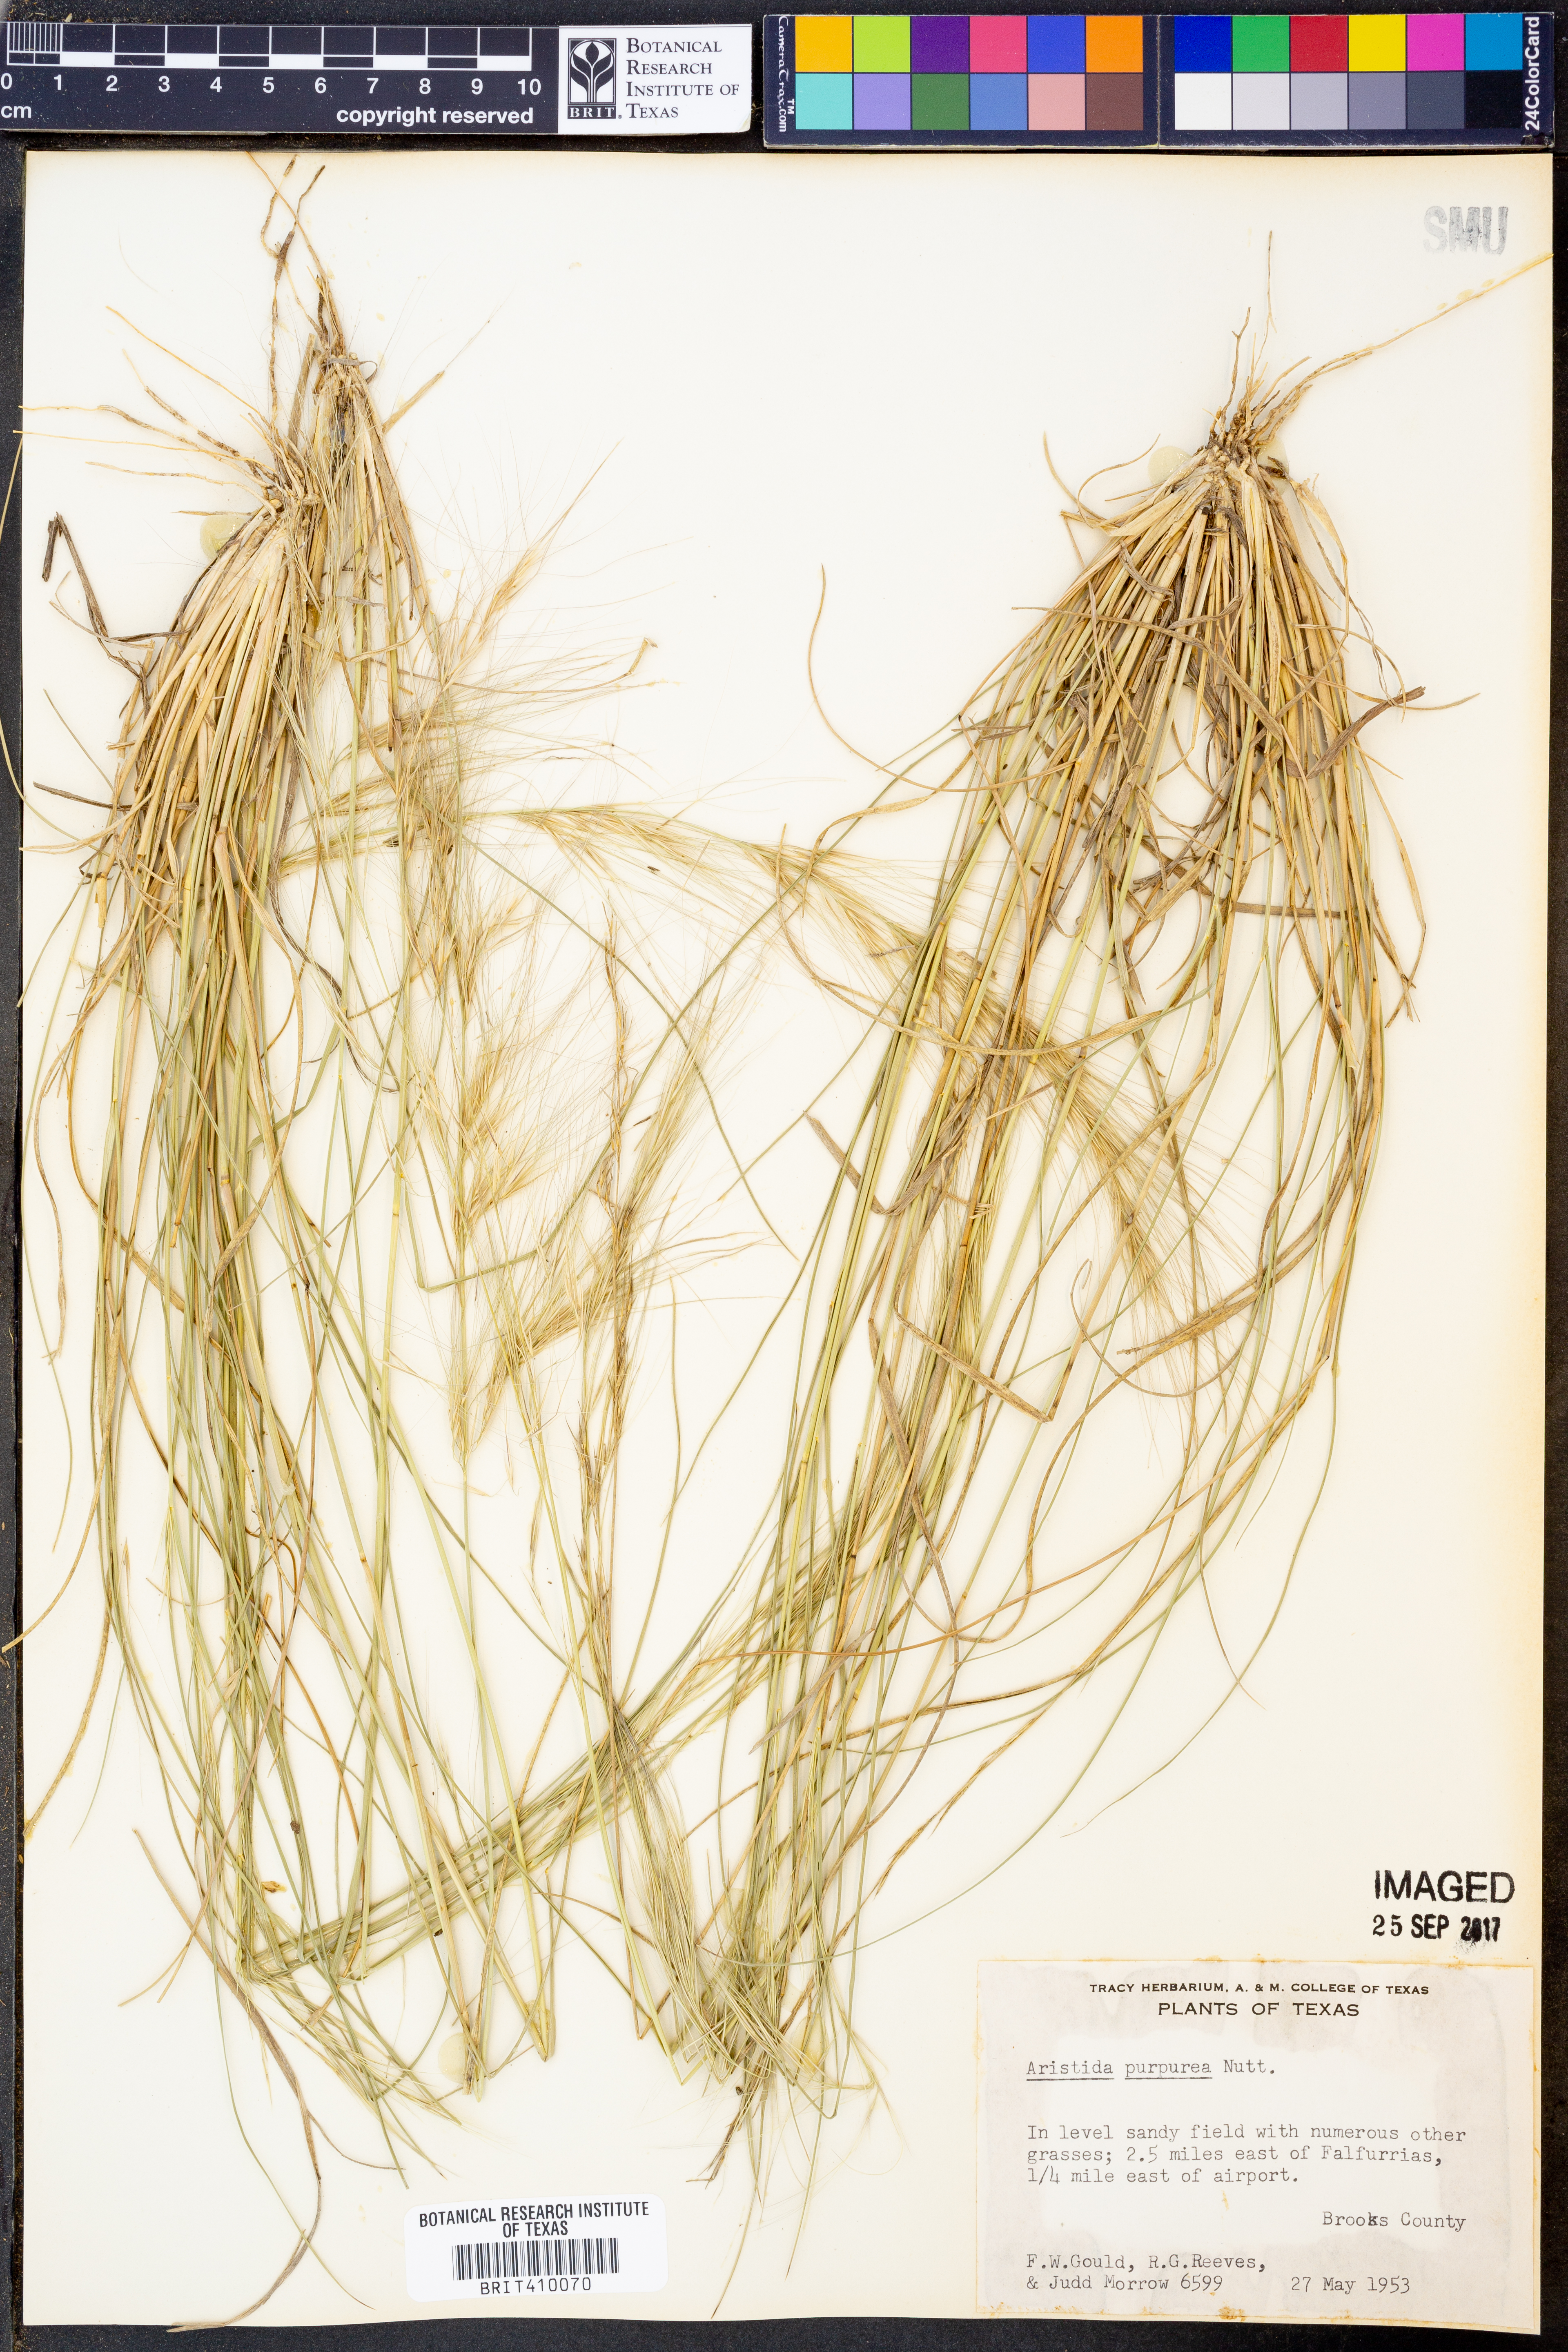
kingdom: Plantae
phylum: Tracheophyta
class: Liliopsida
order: Poales
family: Poaceae
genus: Aristida
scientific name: Aristida purpurea
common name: Purple threeawn
